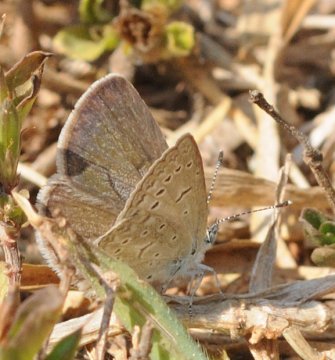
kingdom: Animalia
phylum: Arthropoda
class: Insecta
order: Lepidoptera
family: Lycaenidae
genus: Zizeeria
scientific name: Zizeeria knysna
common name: Dark Grass Blue
